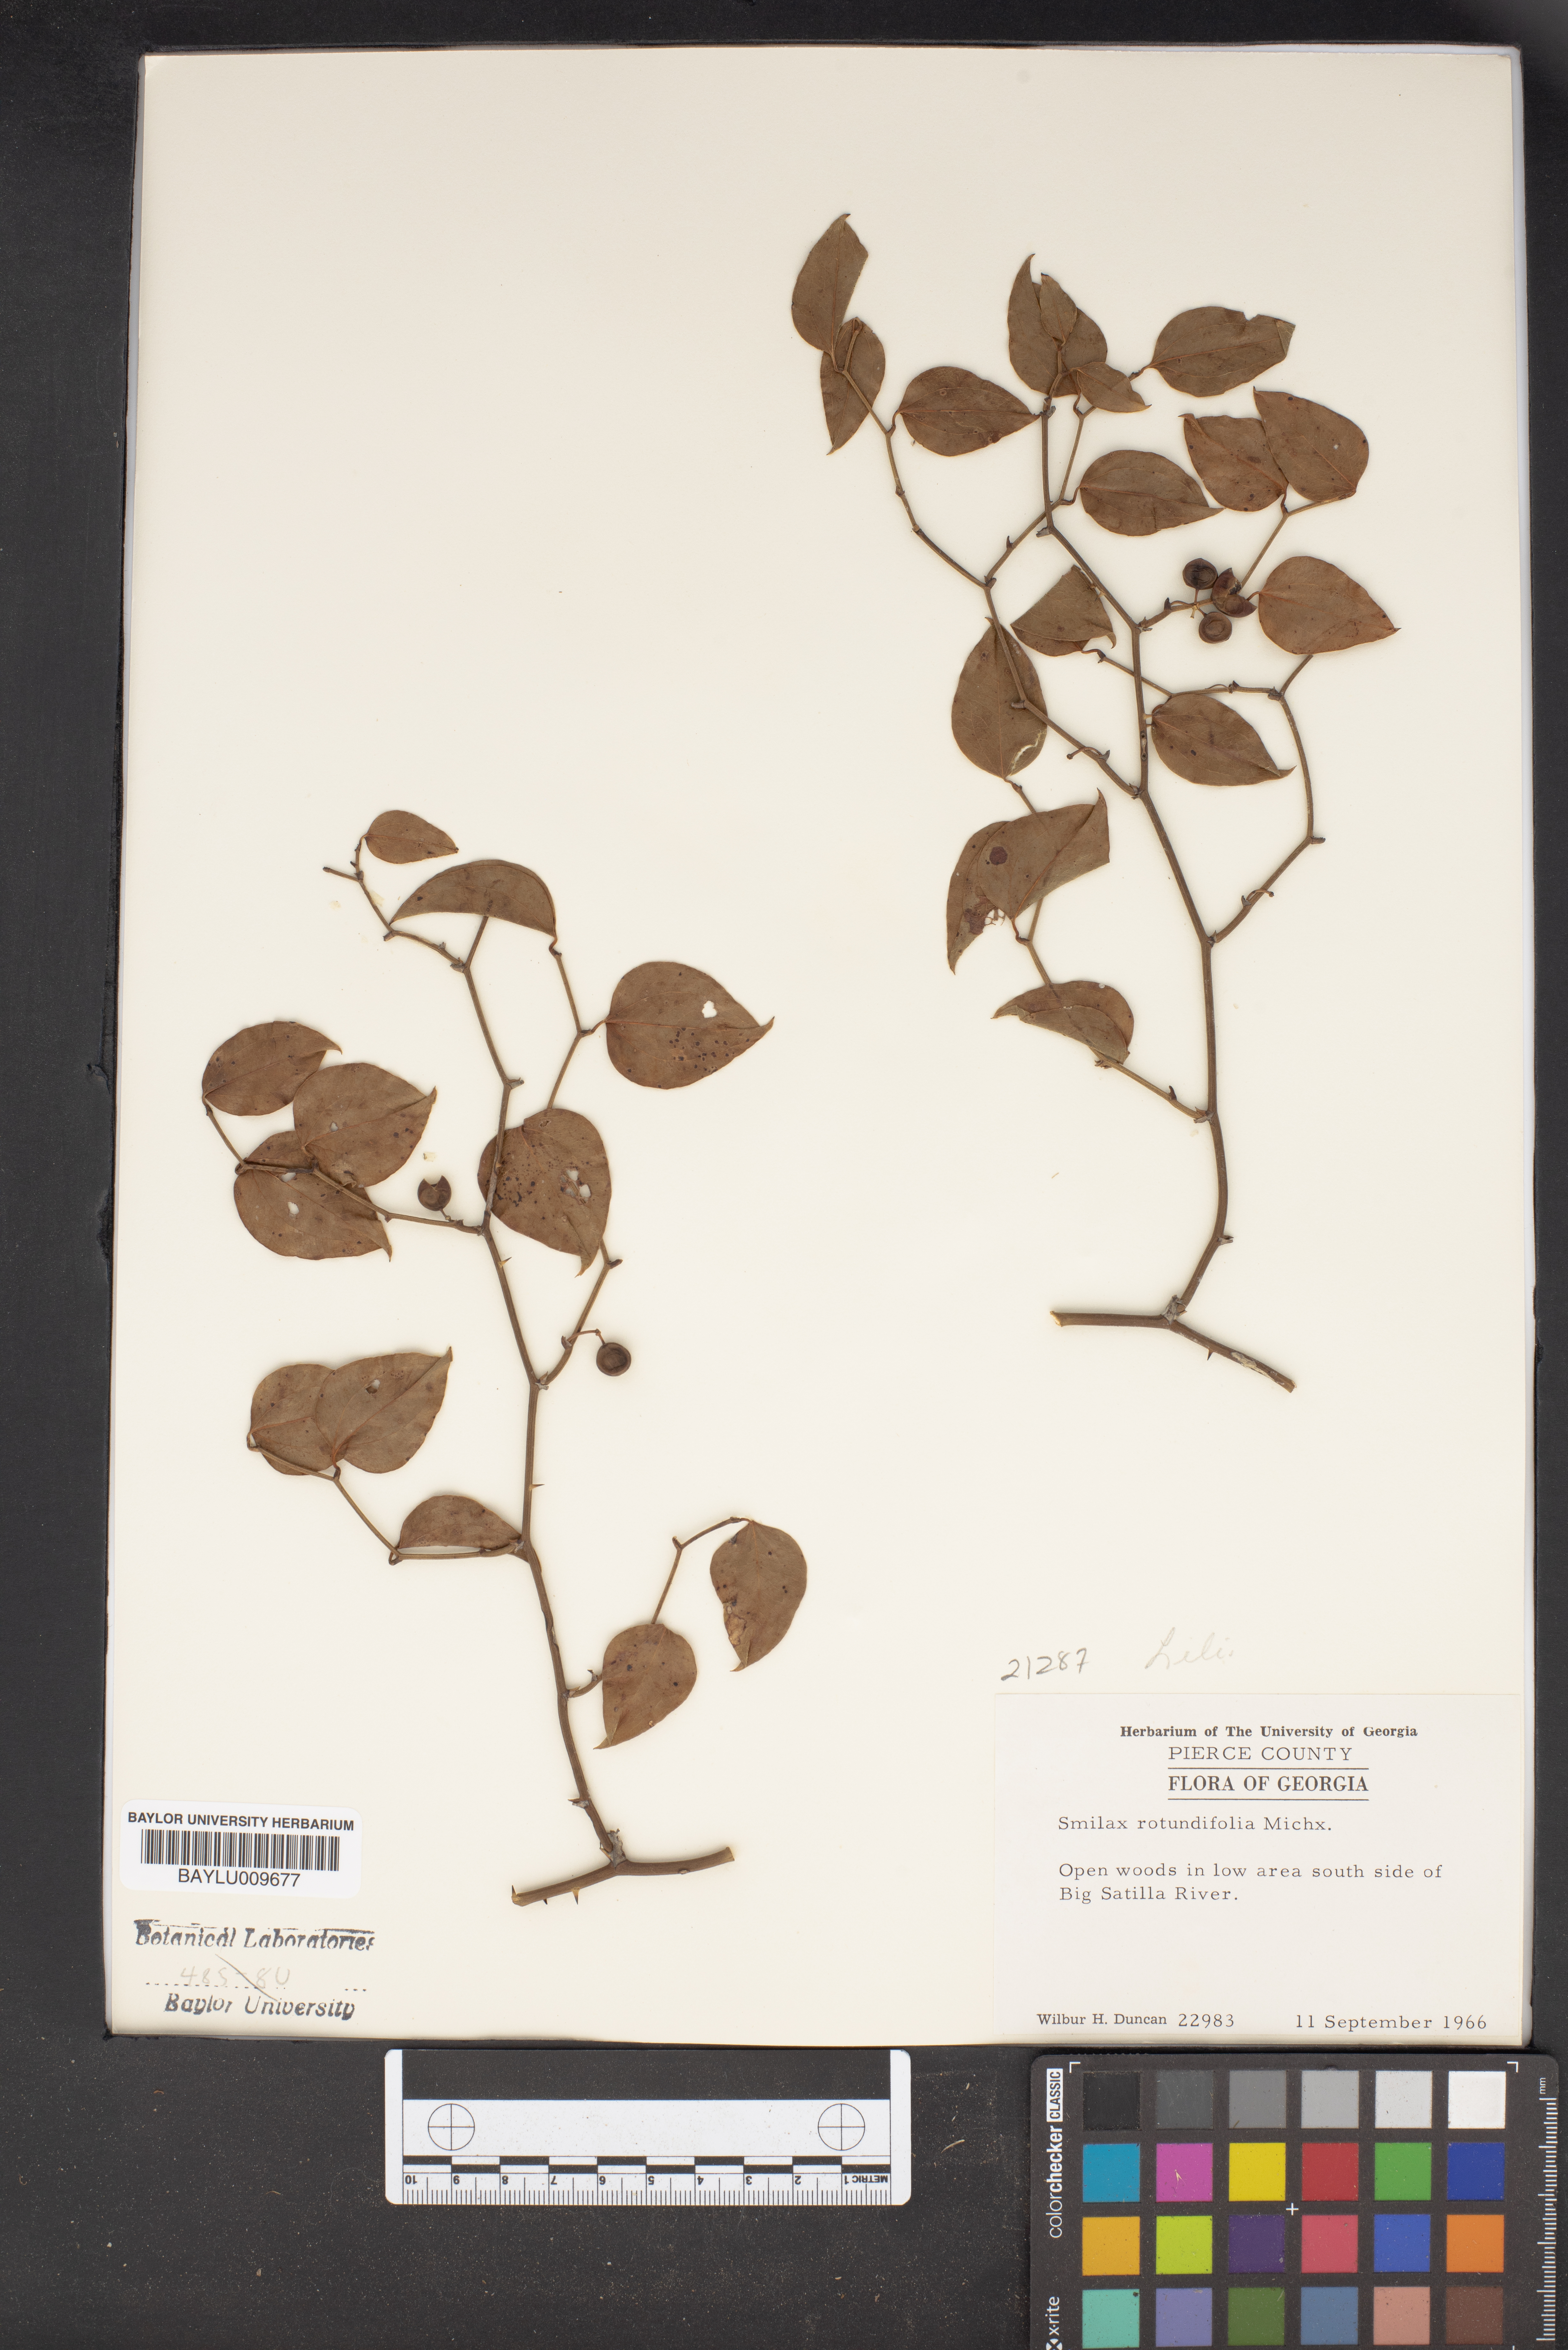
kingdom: Plantae
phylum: Tracheophyta
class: Liliopsida
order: Liliales
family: Smilacaceae
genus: Smilax
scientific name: Smilax rotundifolia
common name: Bullbriar
